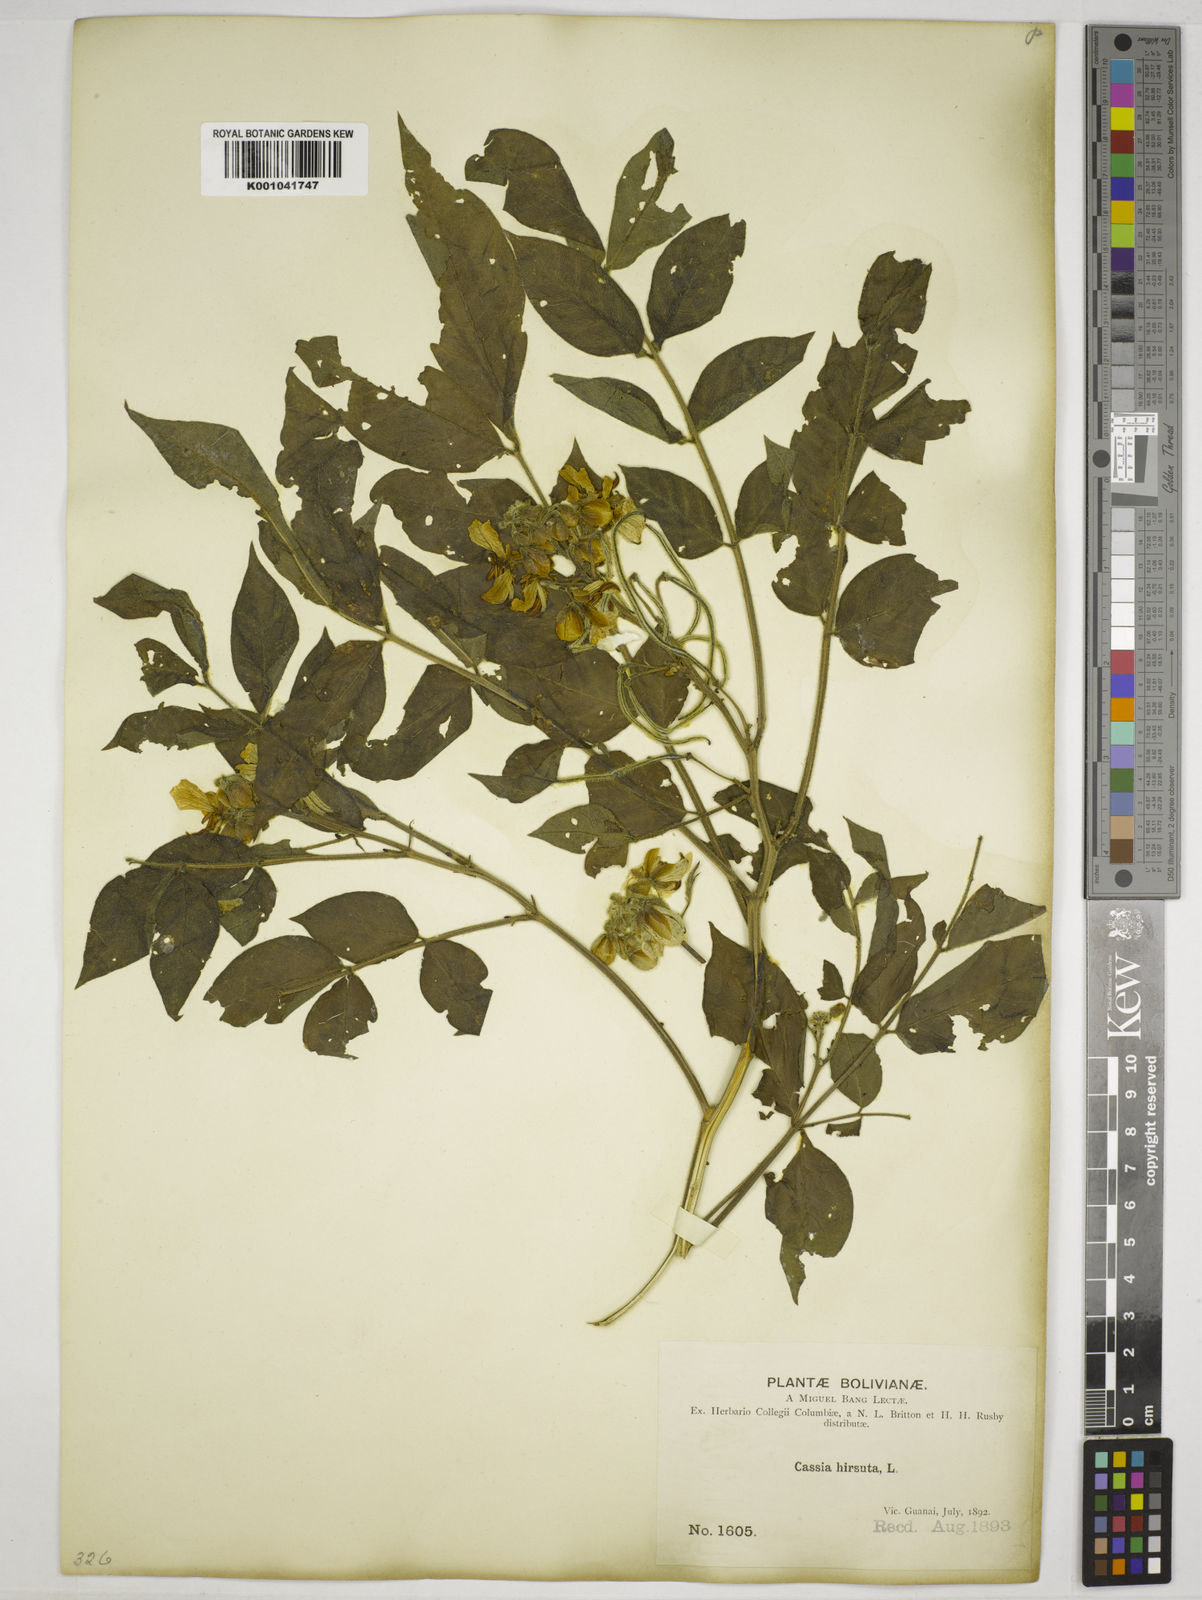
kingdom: Plantae
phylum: Tracheophyta
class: Magnoliopsida
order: Fabales
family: Fabaceae
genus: Senna
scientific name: Senna hirsuta
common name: Woolly senna
